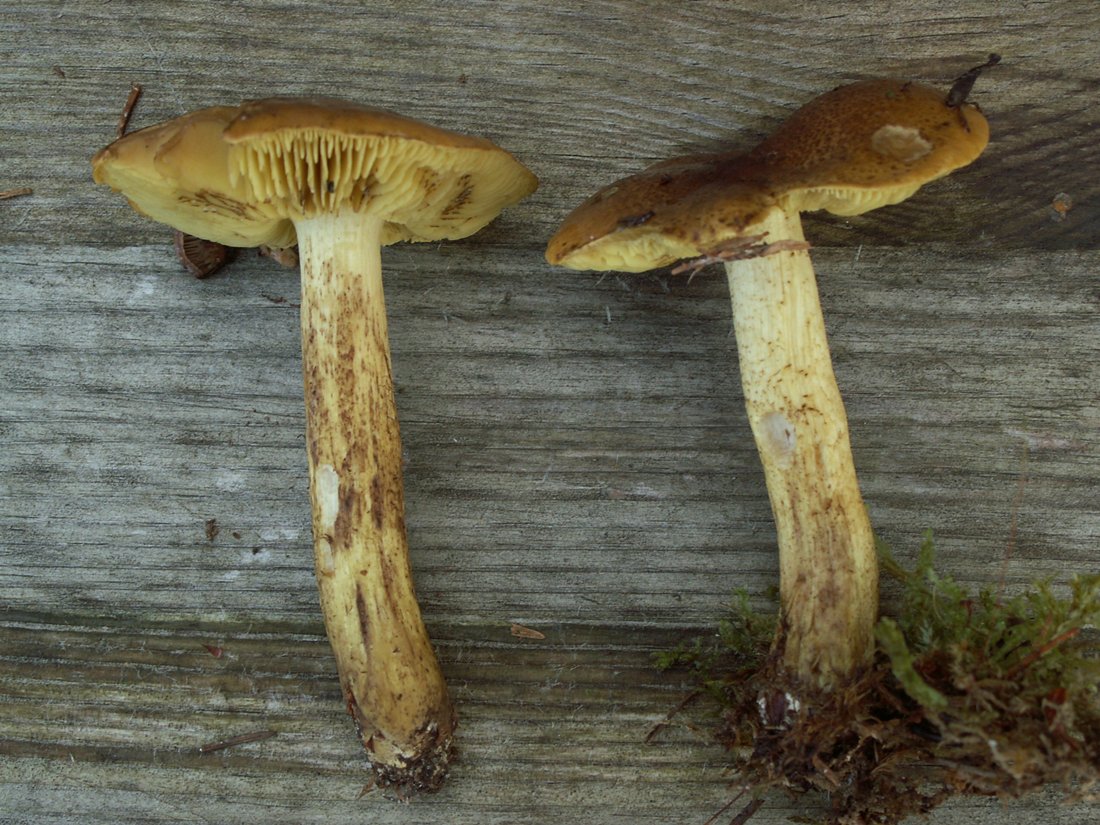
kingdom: Fungi
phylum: Basidiomycota
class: Agaricomycetes
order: Agaricales
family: Tricholomataceae
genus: Tricholoma
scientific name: Tricholoma frondosae
